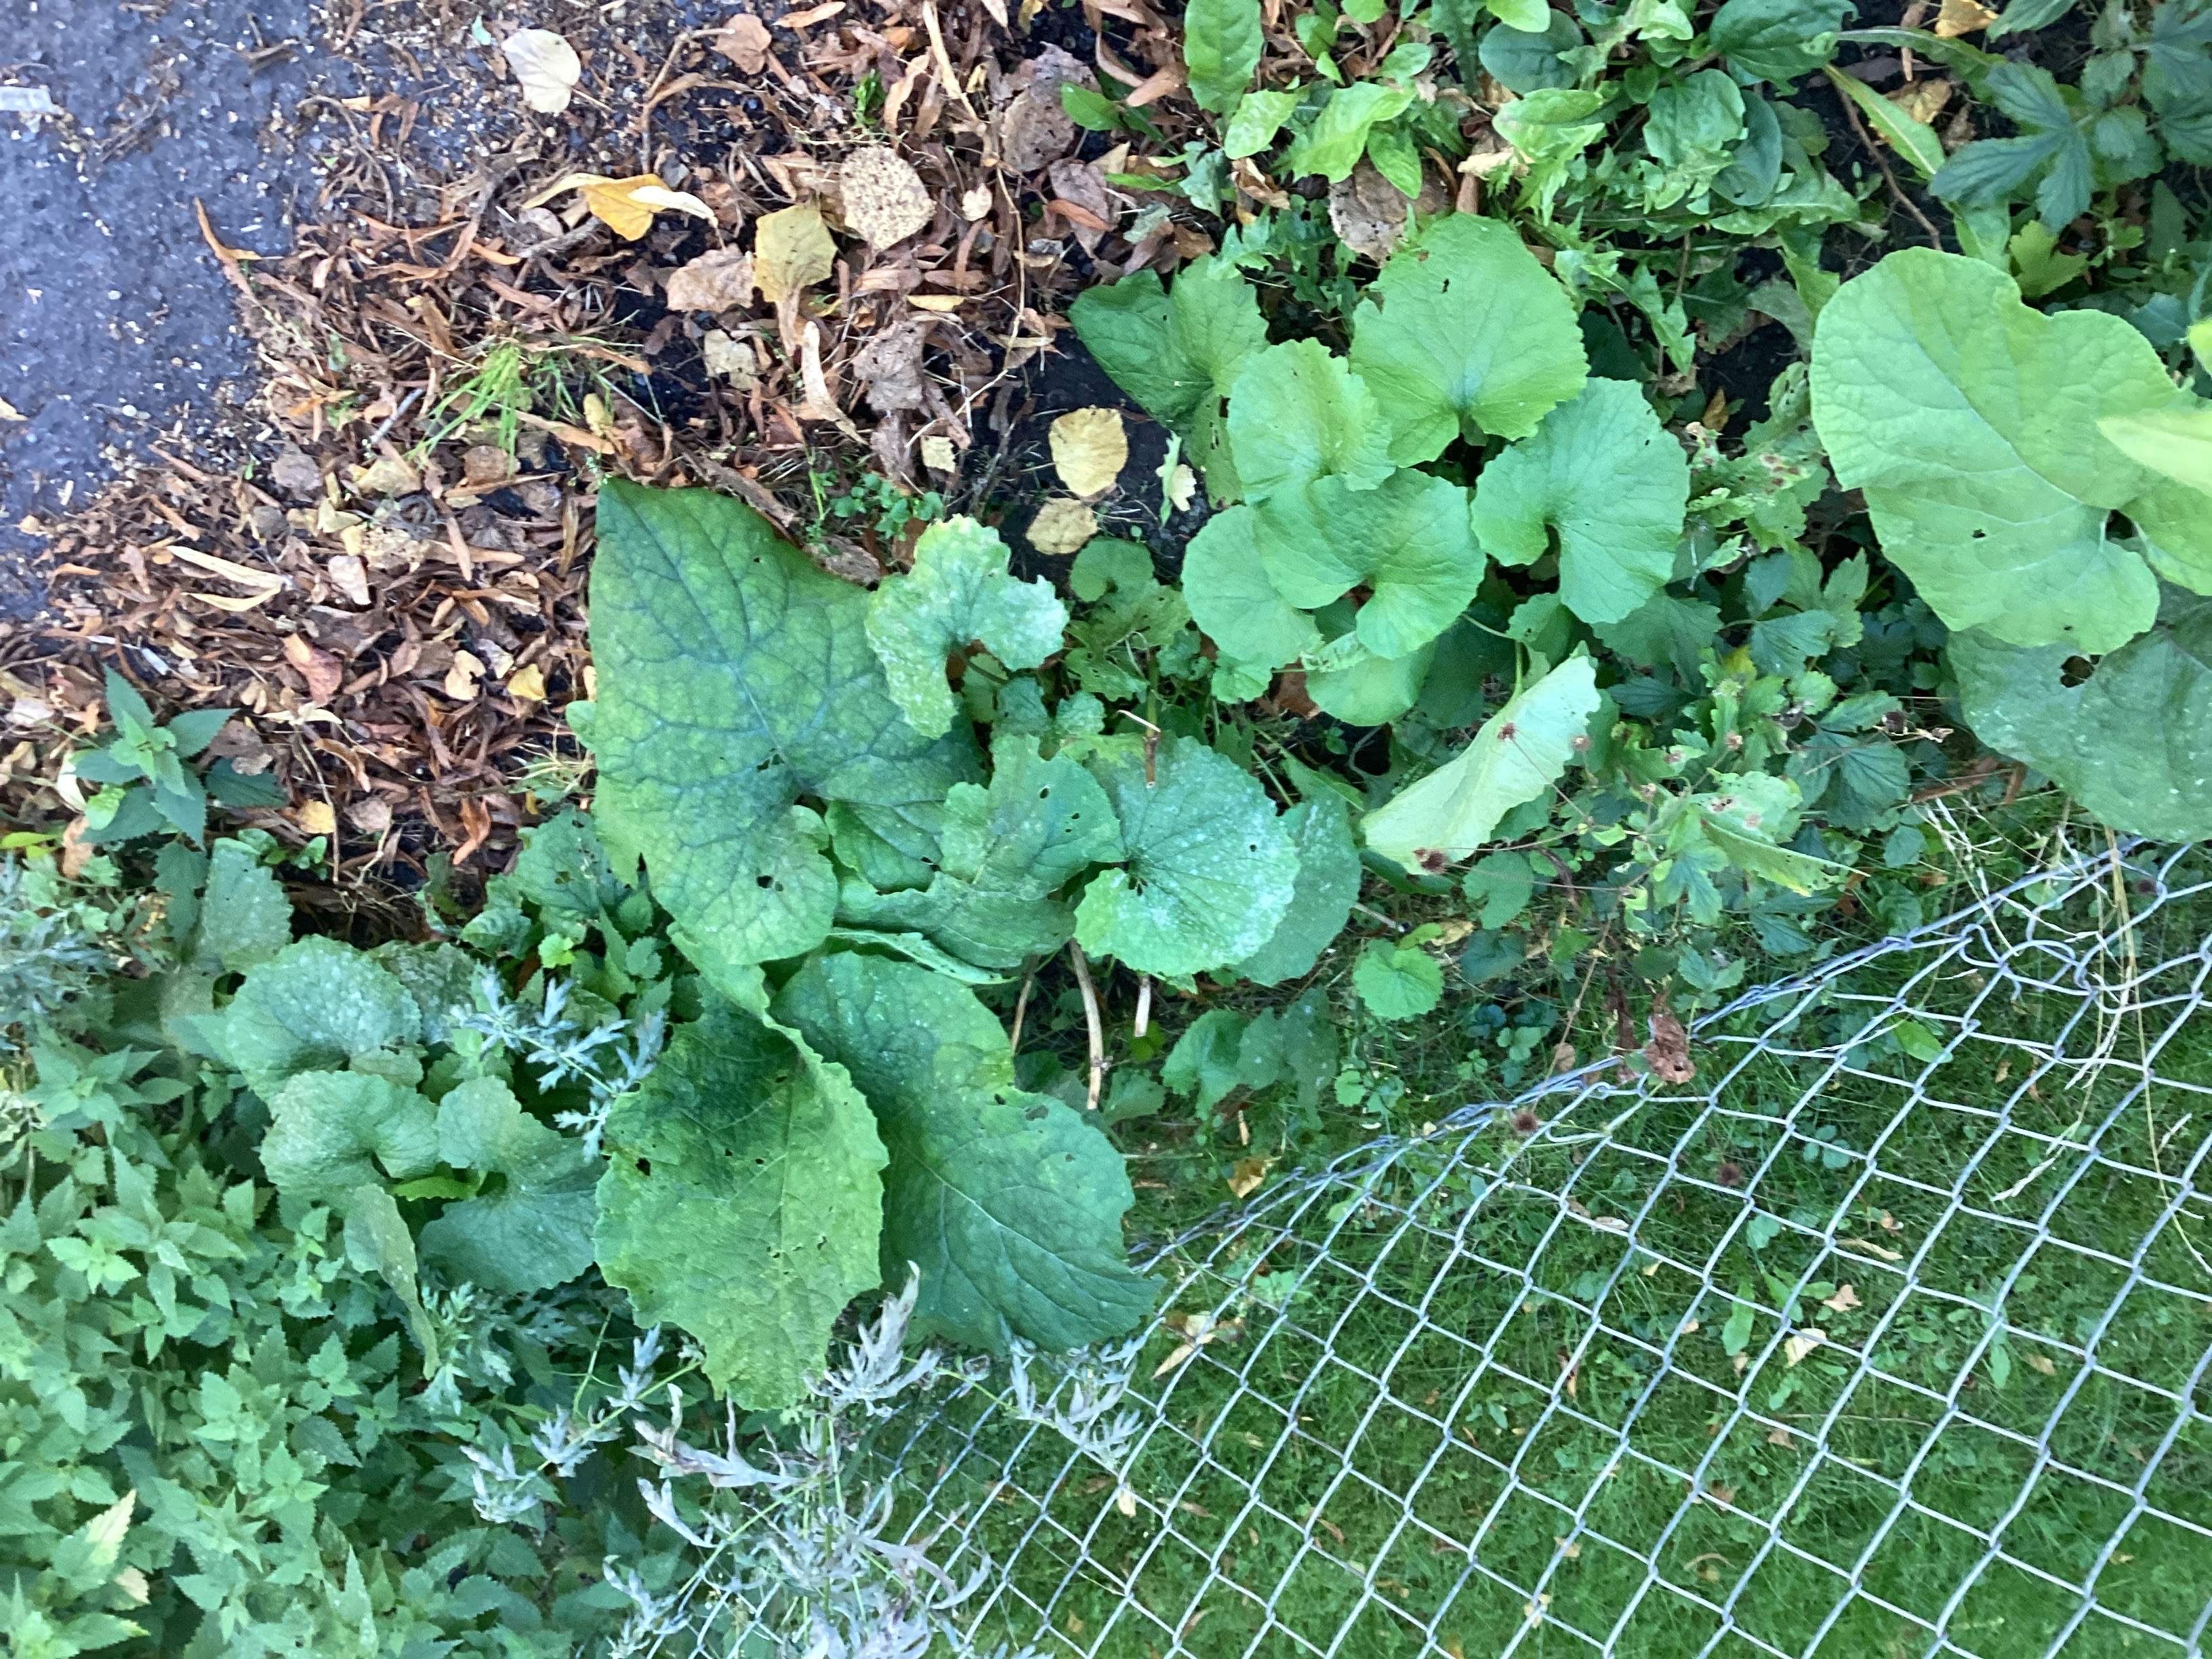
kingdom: Plantae
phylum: Tracheophyta
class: Magnoliopsida
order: Asterales
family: Asteraceae
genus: Arctium
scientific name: Arctium tomentosum
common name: ullborre
